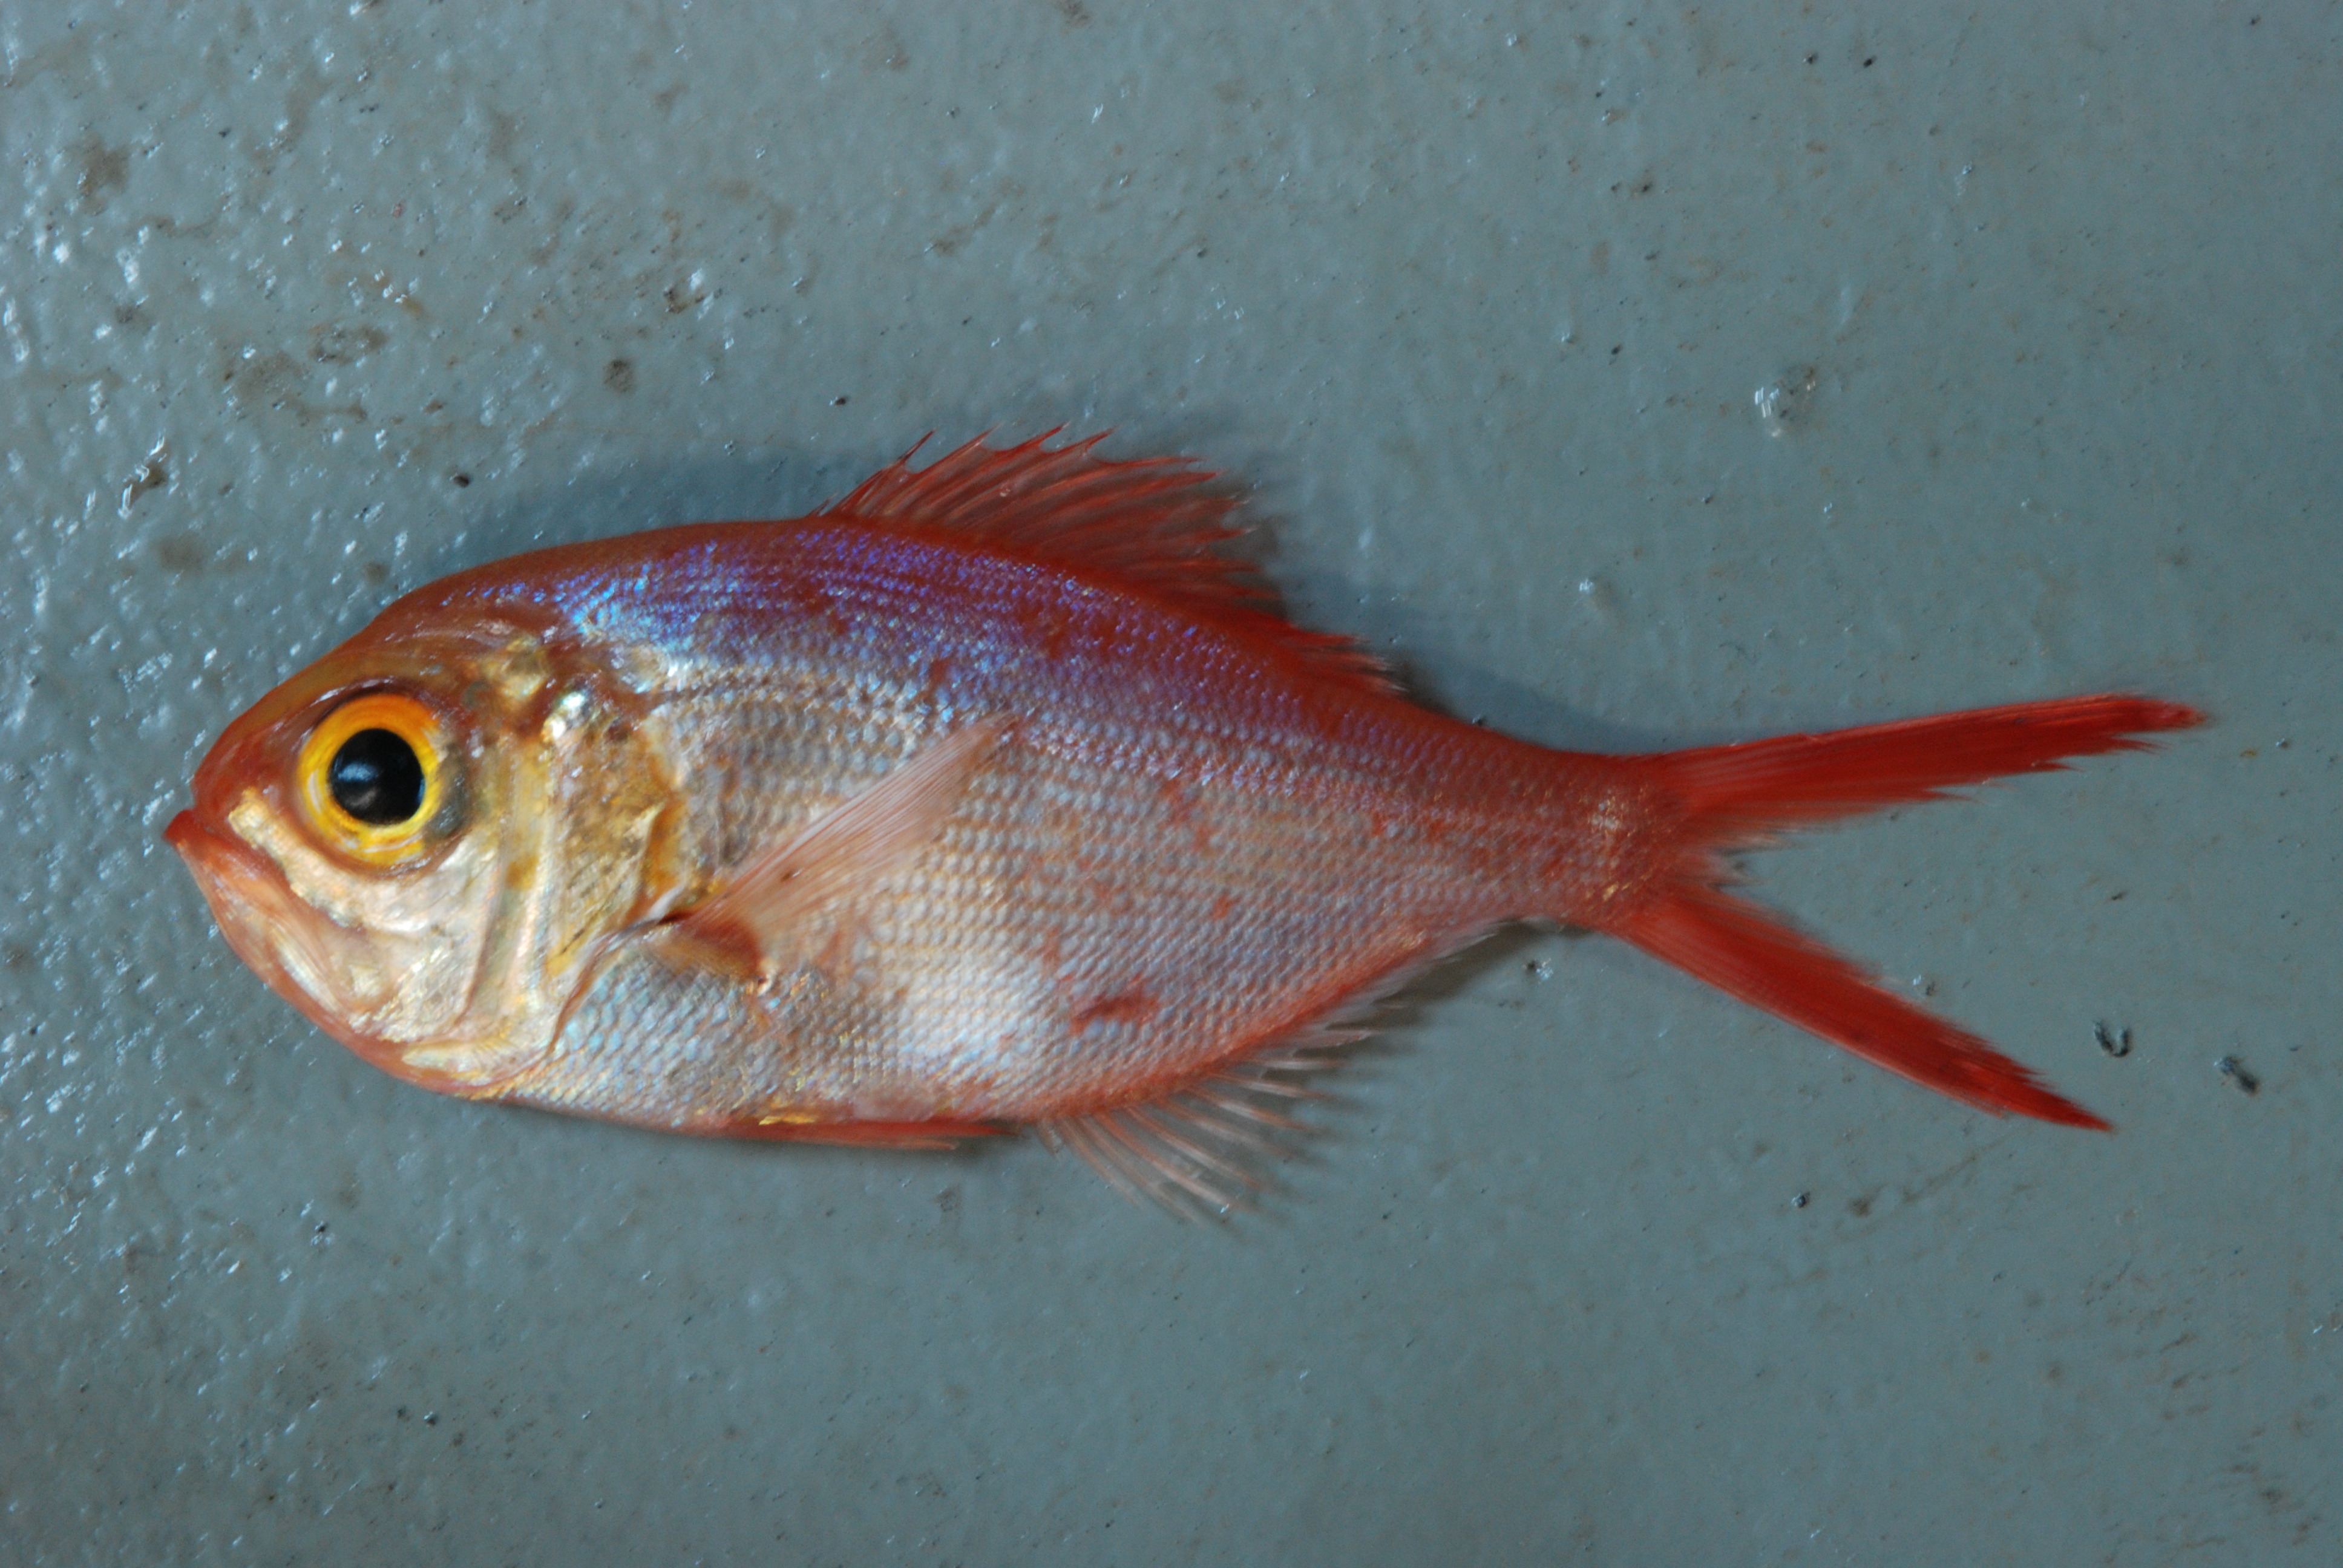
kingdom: Animalia
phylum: Chordata
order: Beryciformes
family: Berycidae
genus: Centroberyx
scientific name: Centroberyx lineatus
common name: Kingfish
